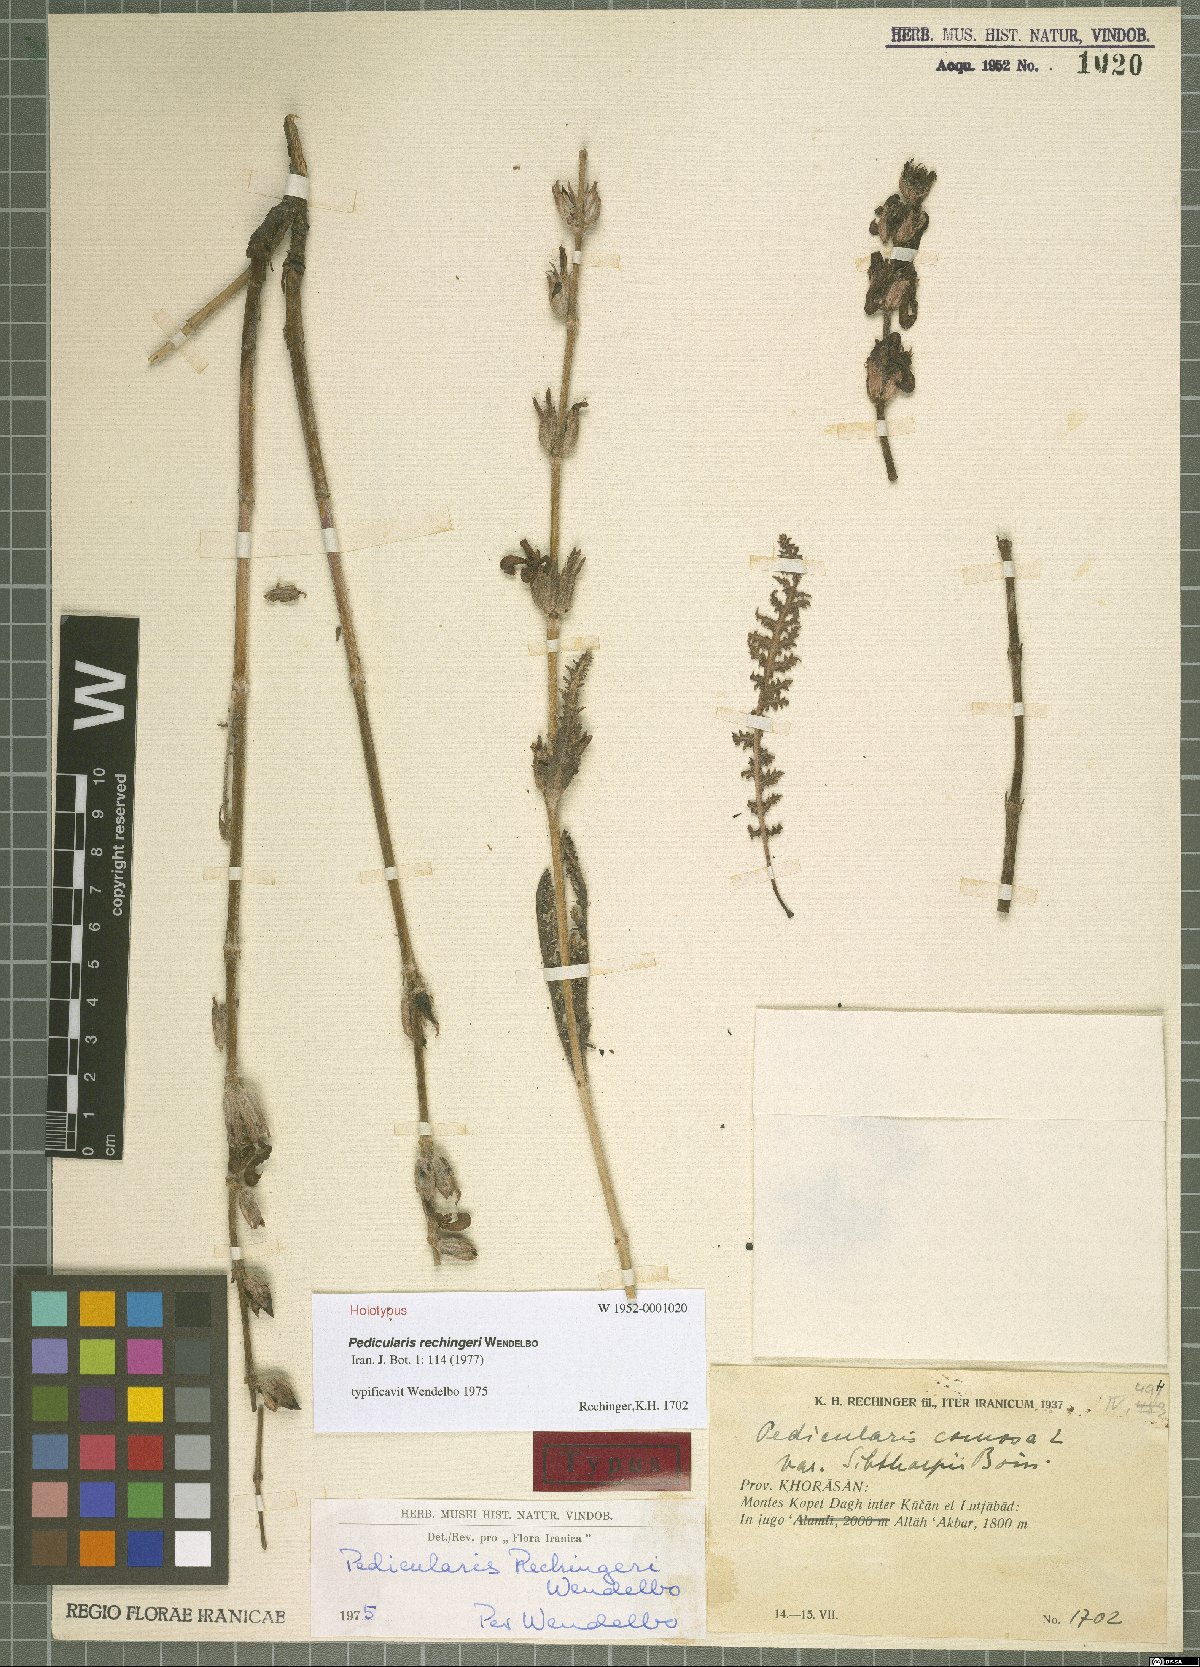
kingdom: Plantae
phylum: Tracheophyta
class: Magnoliopsida
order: Lamiales
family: Orobanchaceae
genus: Pedicularis
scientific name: Pedicularis rechingeri
